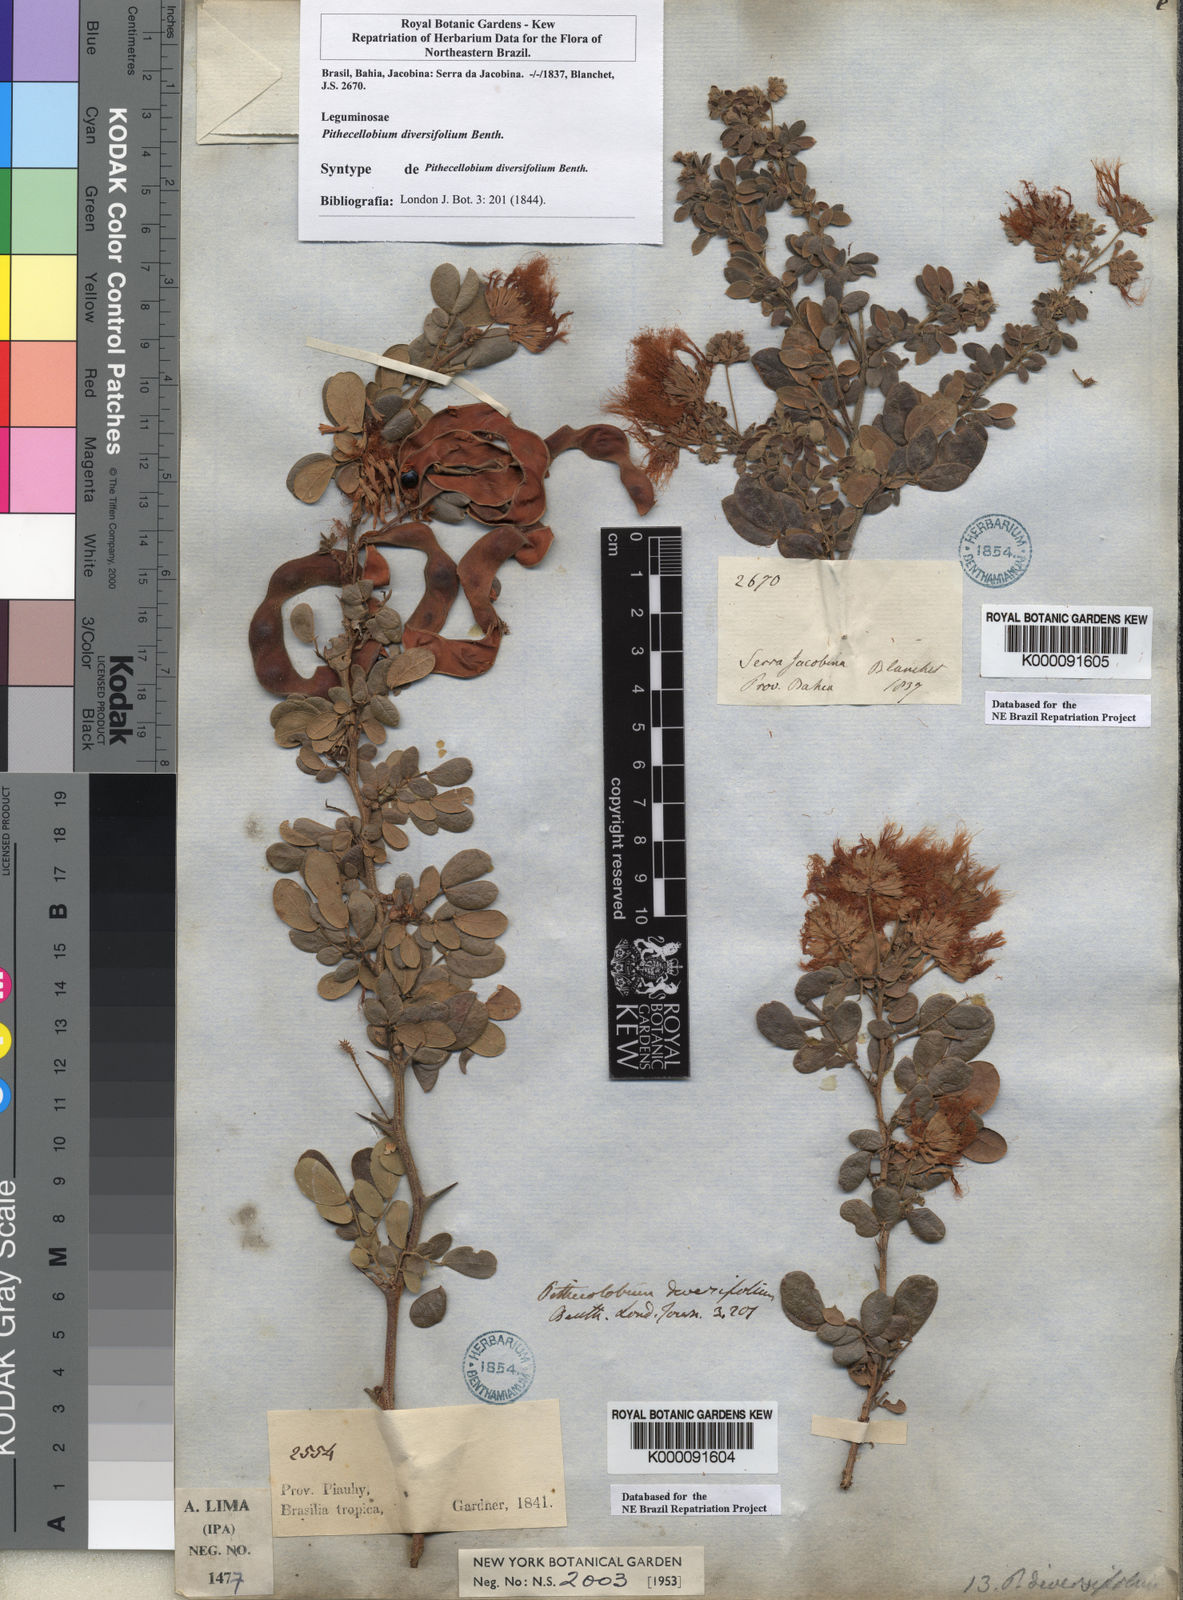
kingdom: Plantae
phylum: Tracheophyta
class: Magnoliopsida
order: Fabales
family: Fabaceae
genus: Pithecellobium
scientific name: Pithecellobium diversifolium
